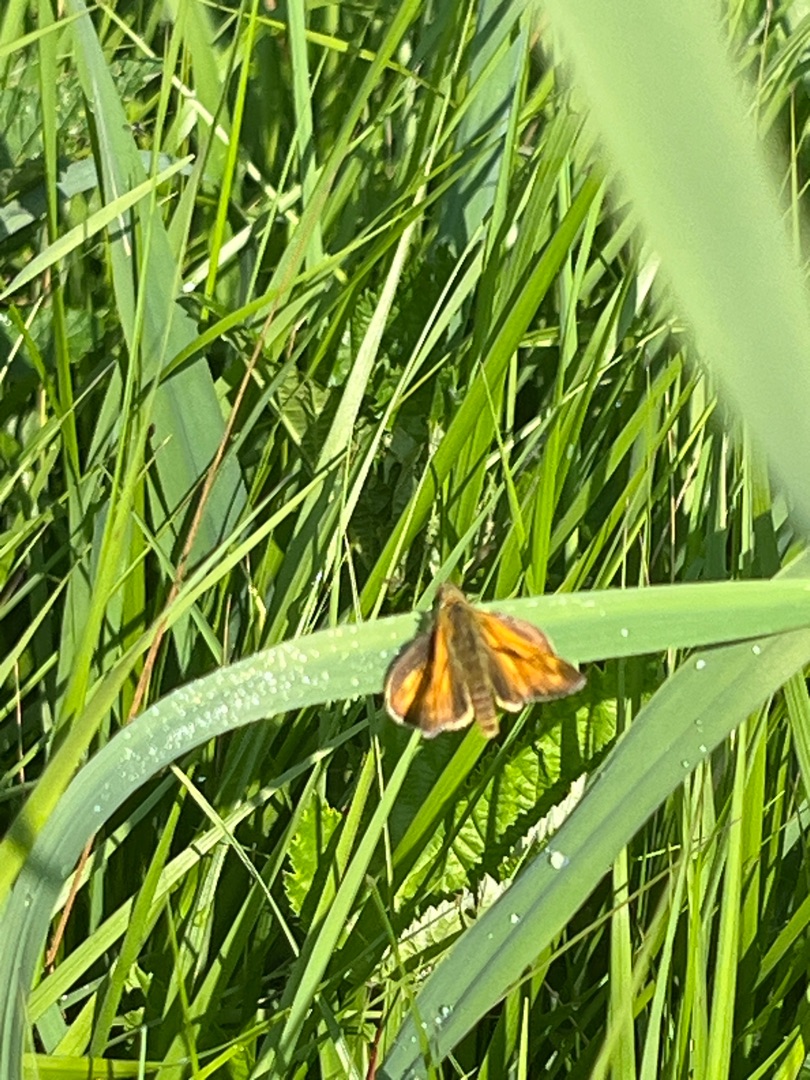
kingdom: Animalia
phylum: Arthropoda
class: Insecta
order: Lepidoptera
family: Hesperiidae
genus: Ochlodes
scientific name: Ochlodes venata
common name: Stor bredpande
